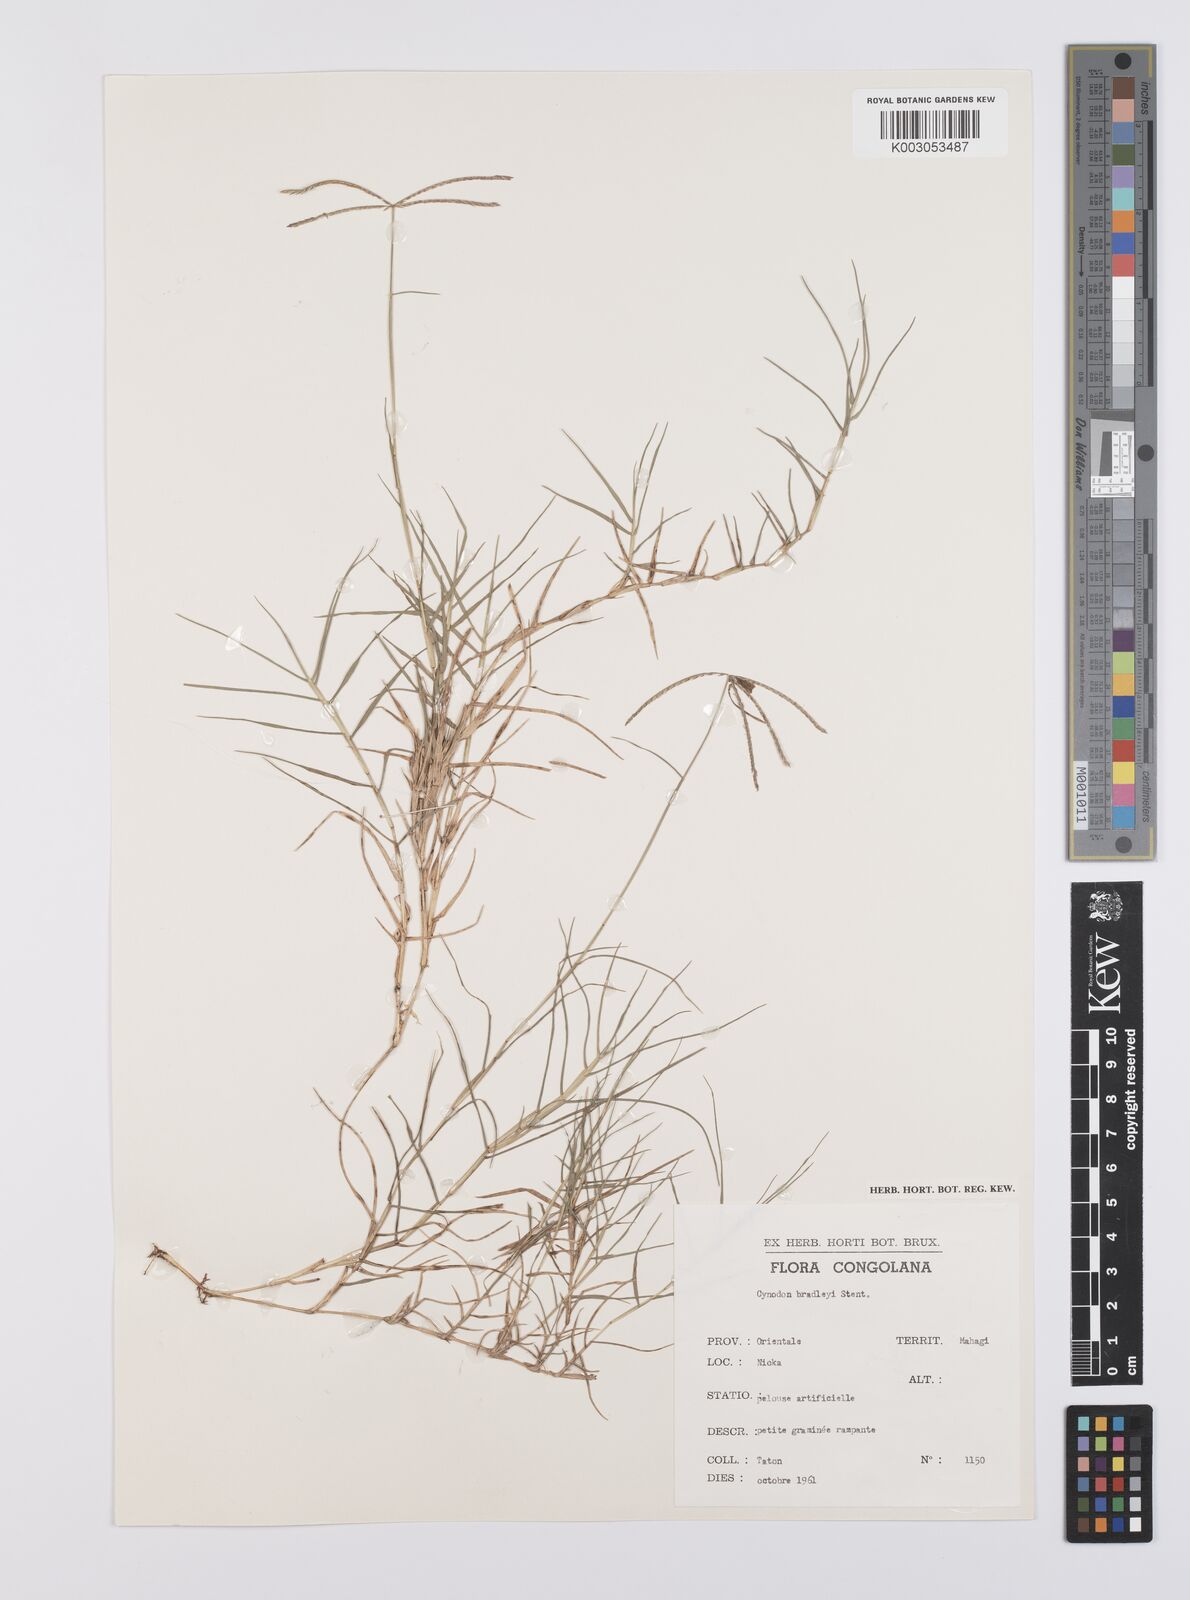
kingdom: Plantae
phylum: Tracheophyta
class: Liliopsida
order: Poales
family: Poaceae
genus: Cynodon
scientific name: Cynodon incompletus
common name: African bermuda-grass
